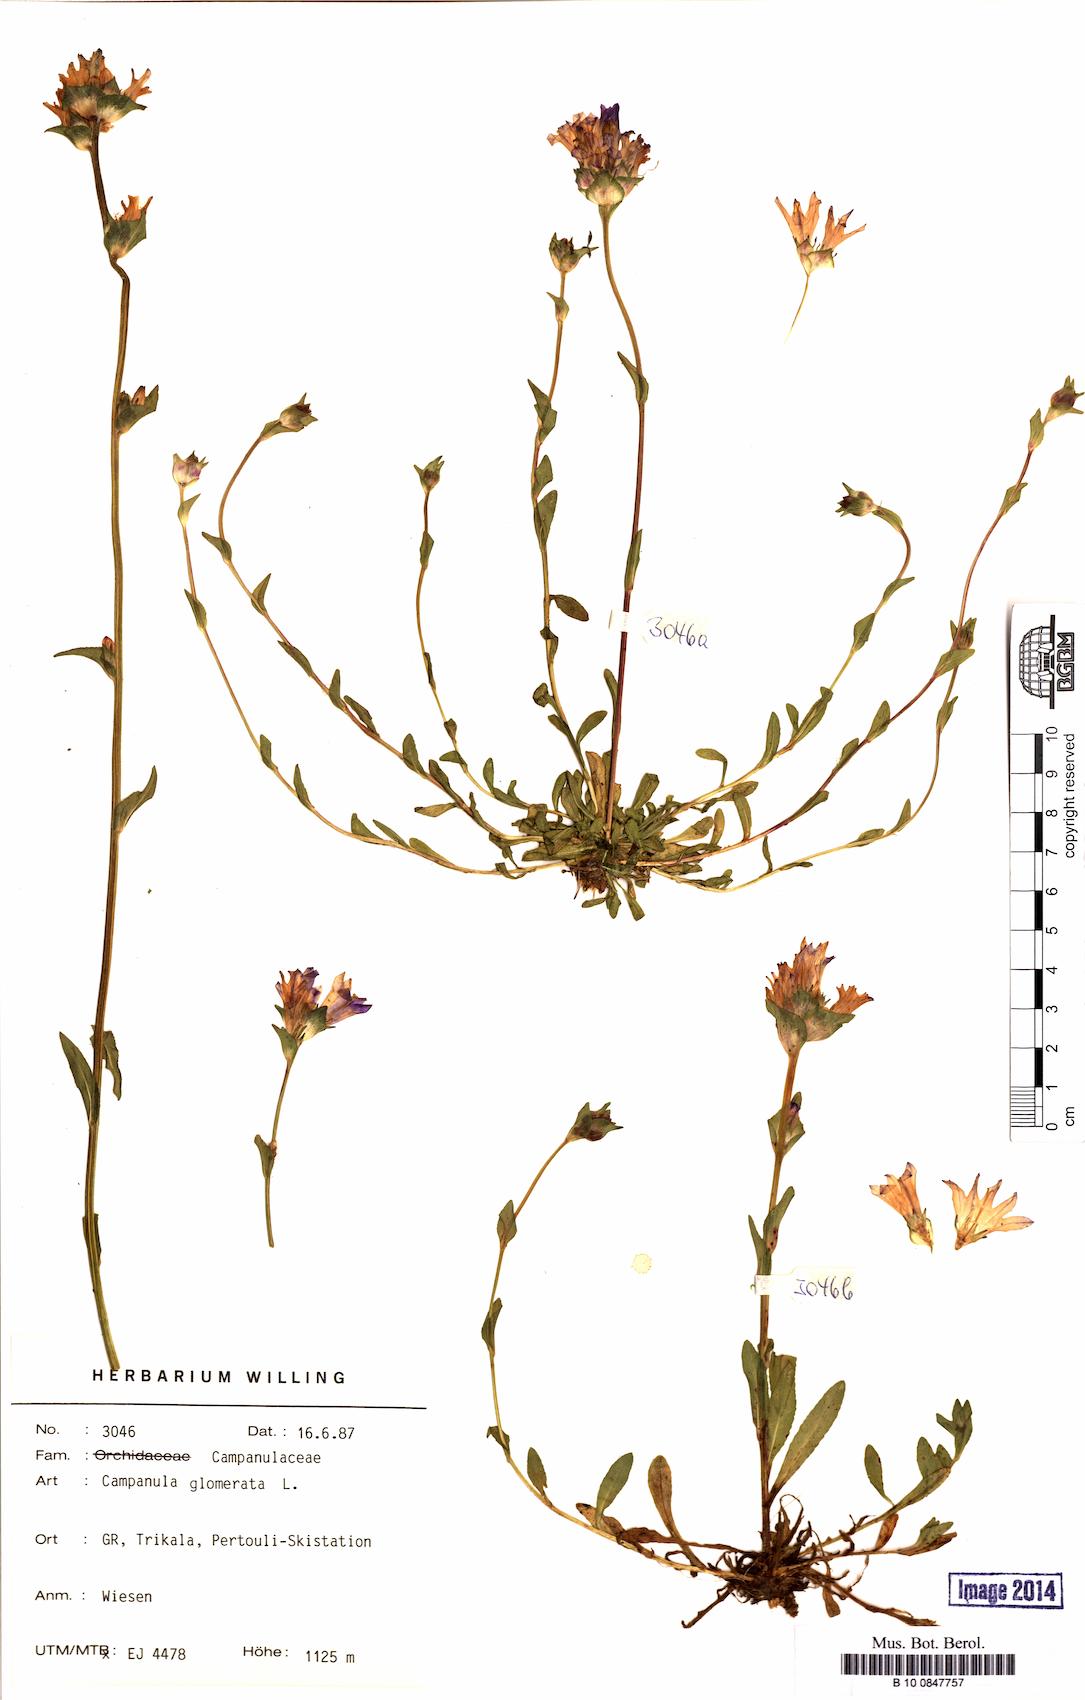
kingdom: Plantae
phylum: Tracheophyta
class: Magnoliopsida
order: Asterales
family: Campanulaceae
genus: Campanula
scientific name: Campanula glomerata
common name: Clustered bellflower
